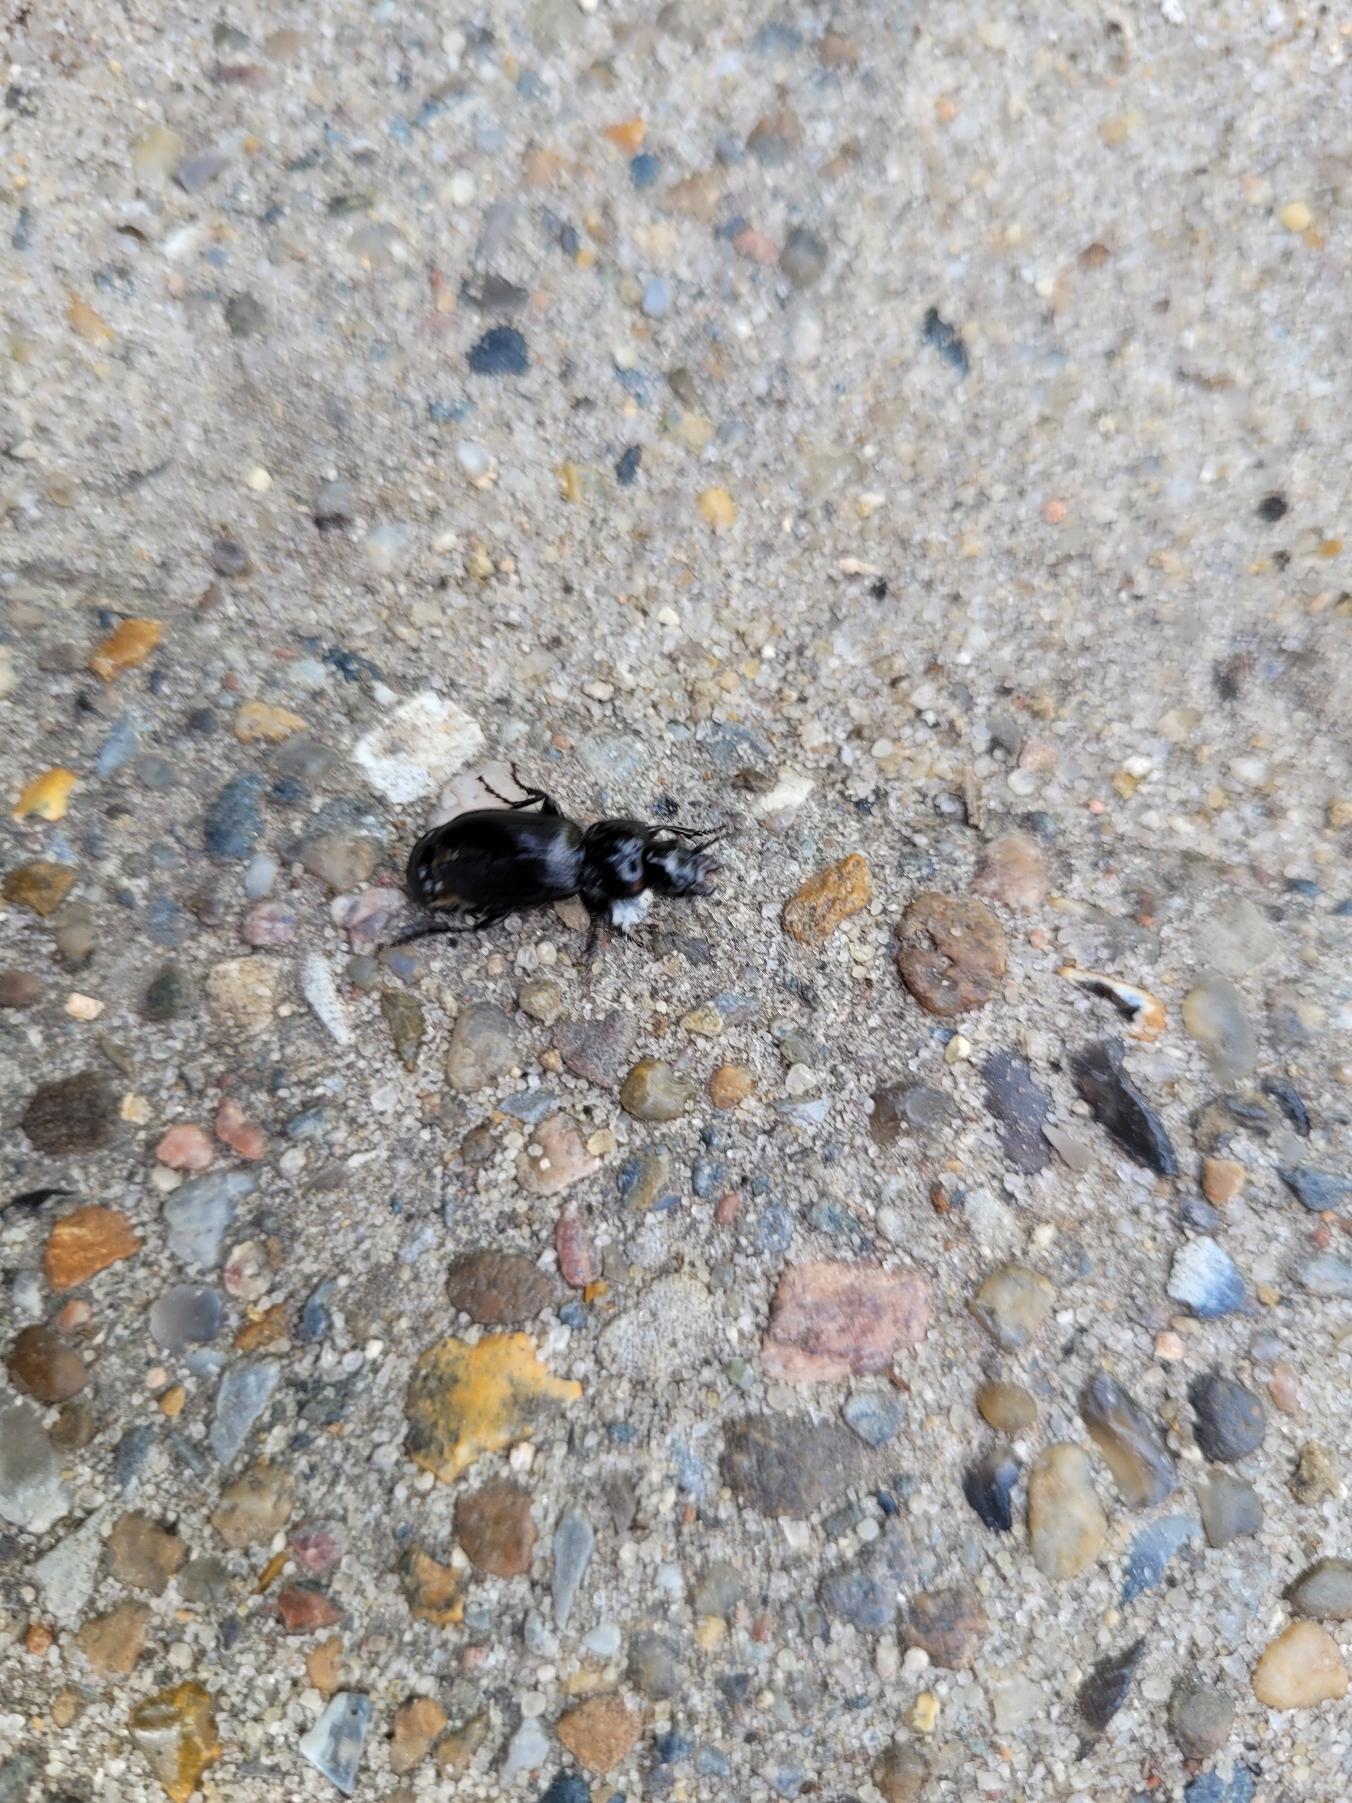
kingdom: Animalia
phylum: Arthropoda
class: Insecta
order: Coleoptera
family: Carabidae
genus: Pterostichus
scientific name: Pterostichus niger
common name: Skovjordløber
